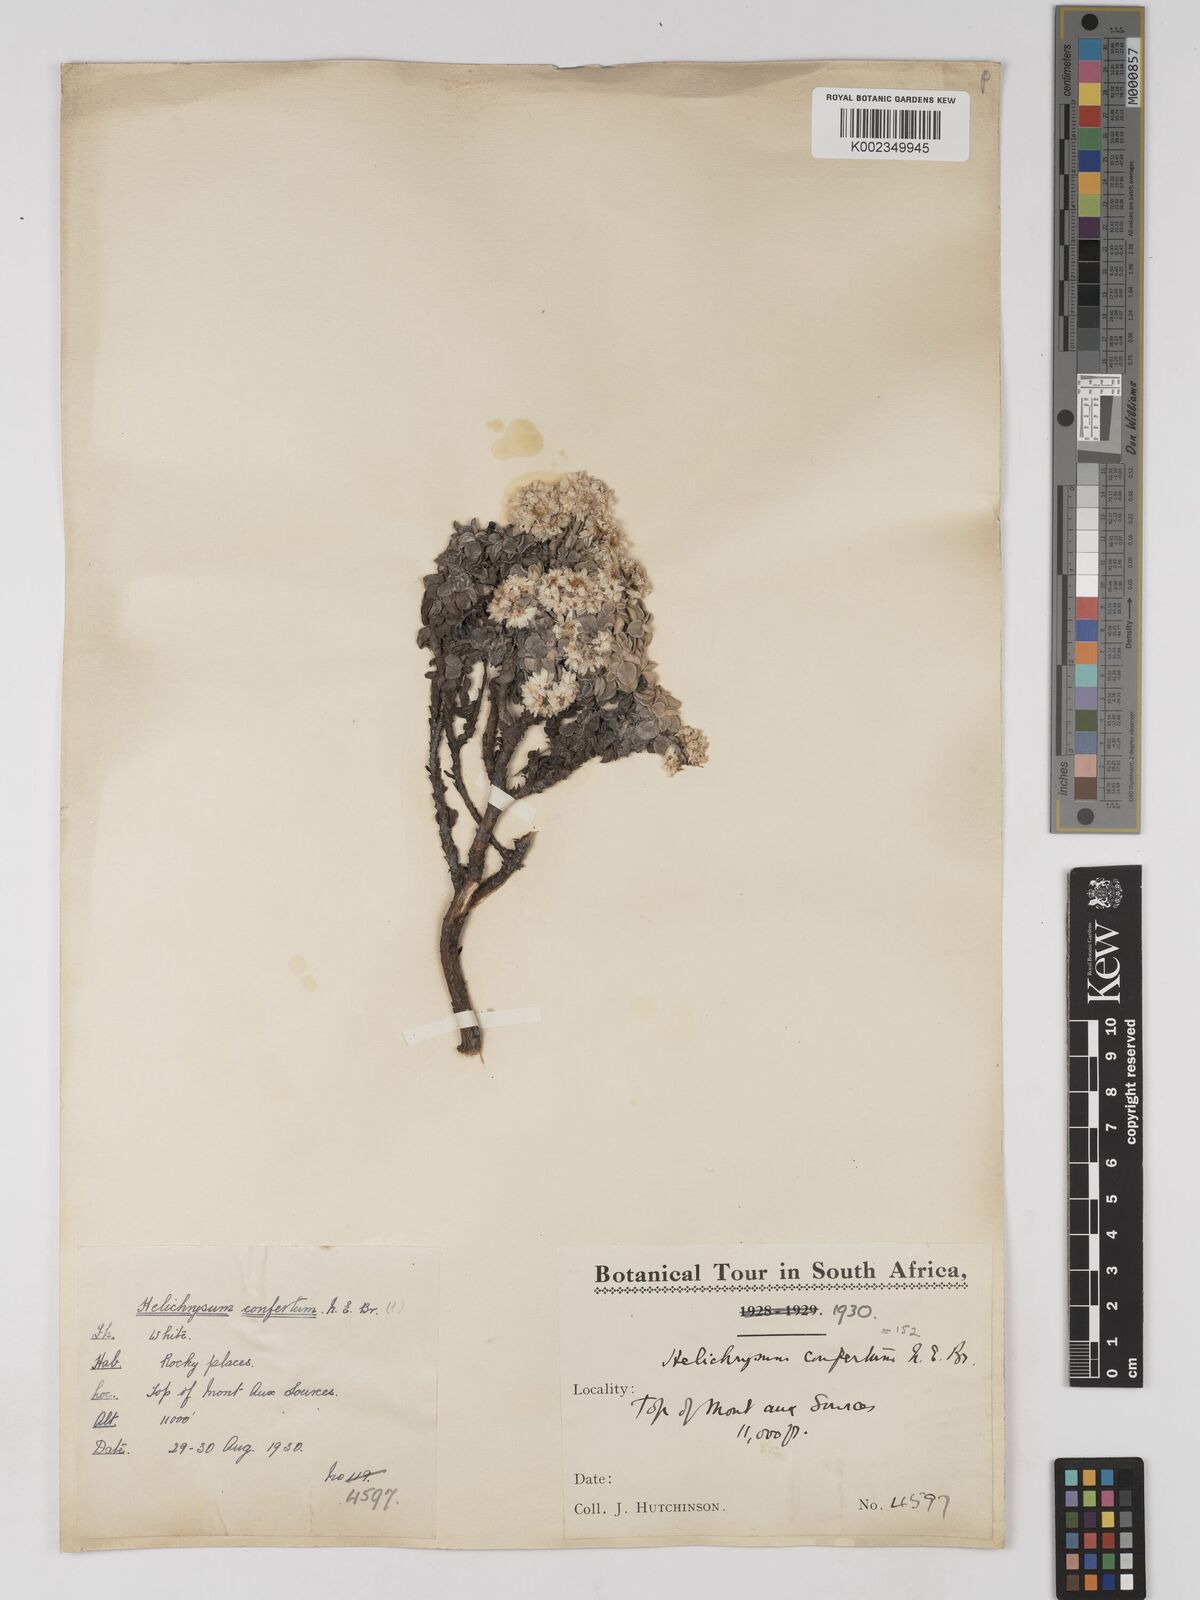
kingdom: Plantae
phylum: Tracheophyta
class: Magnoliopsida
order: Asterales
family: Asteraceae
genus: Helichrysum
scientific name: Helichrysum confertum
